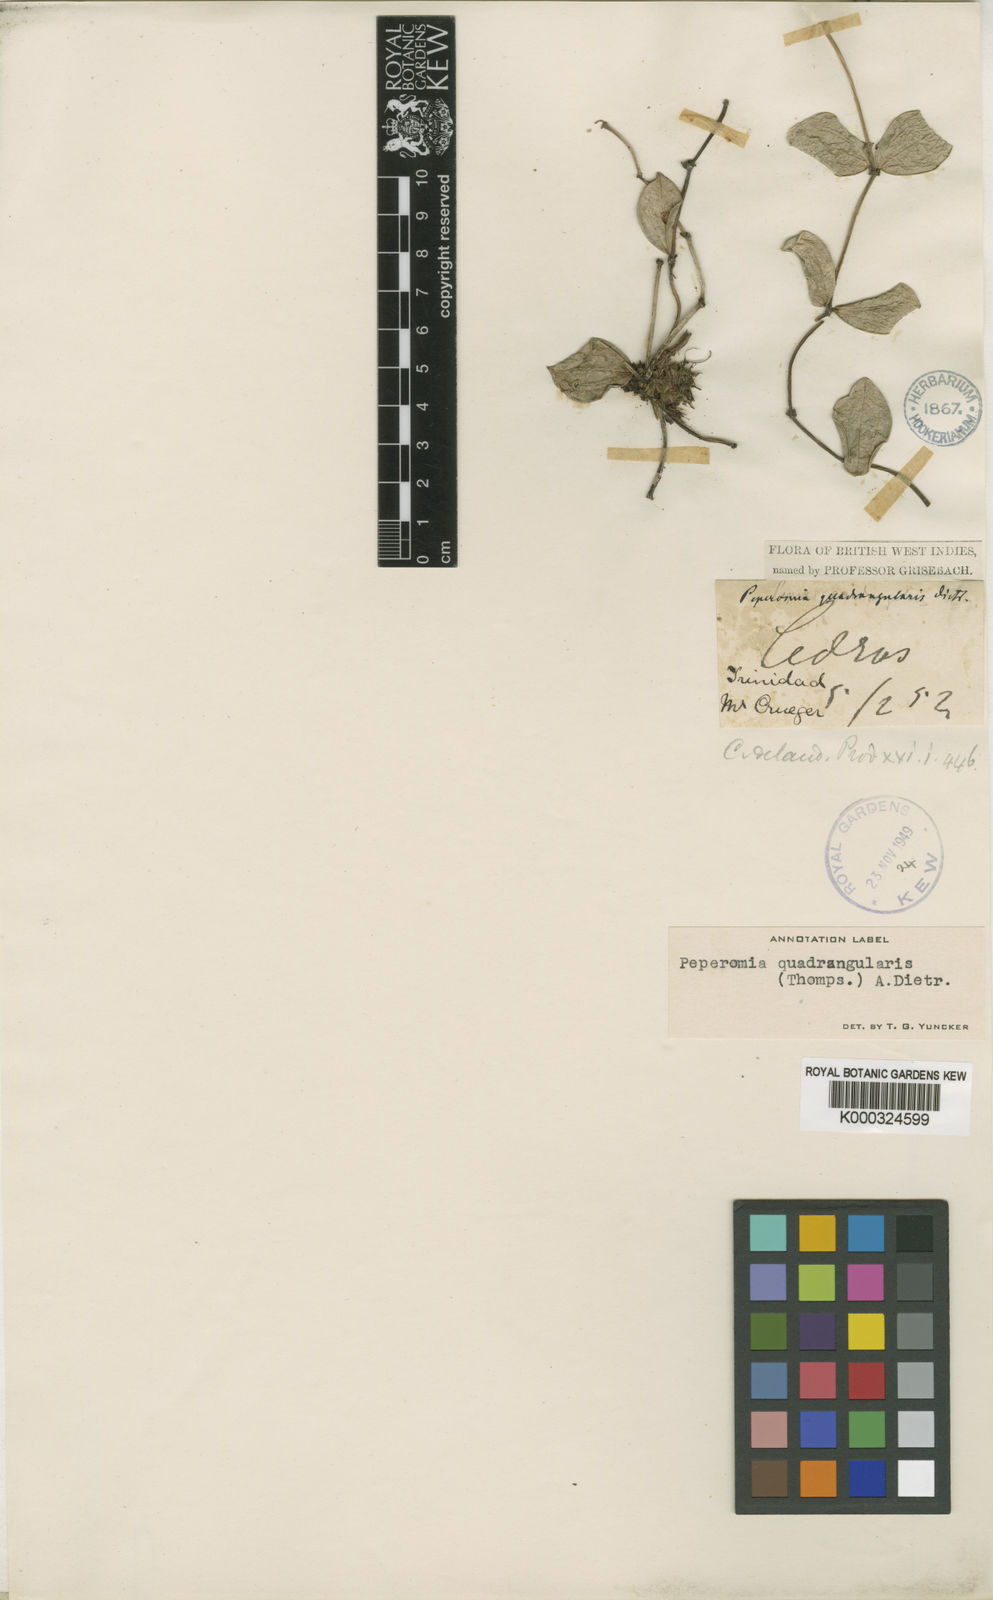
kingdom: Plantae
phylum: Tracheophyta
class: Magnoliopsida
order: Piperales
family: Piperaceae
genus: Peperomia
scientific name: Peperomia quadrangularis
